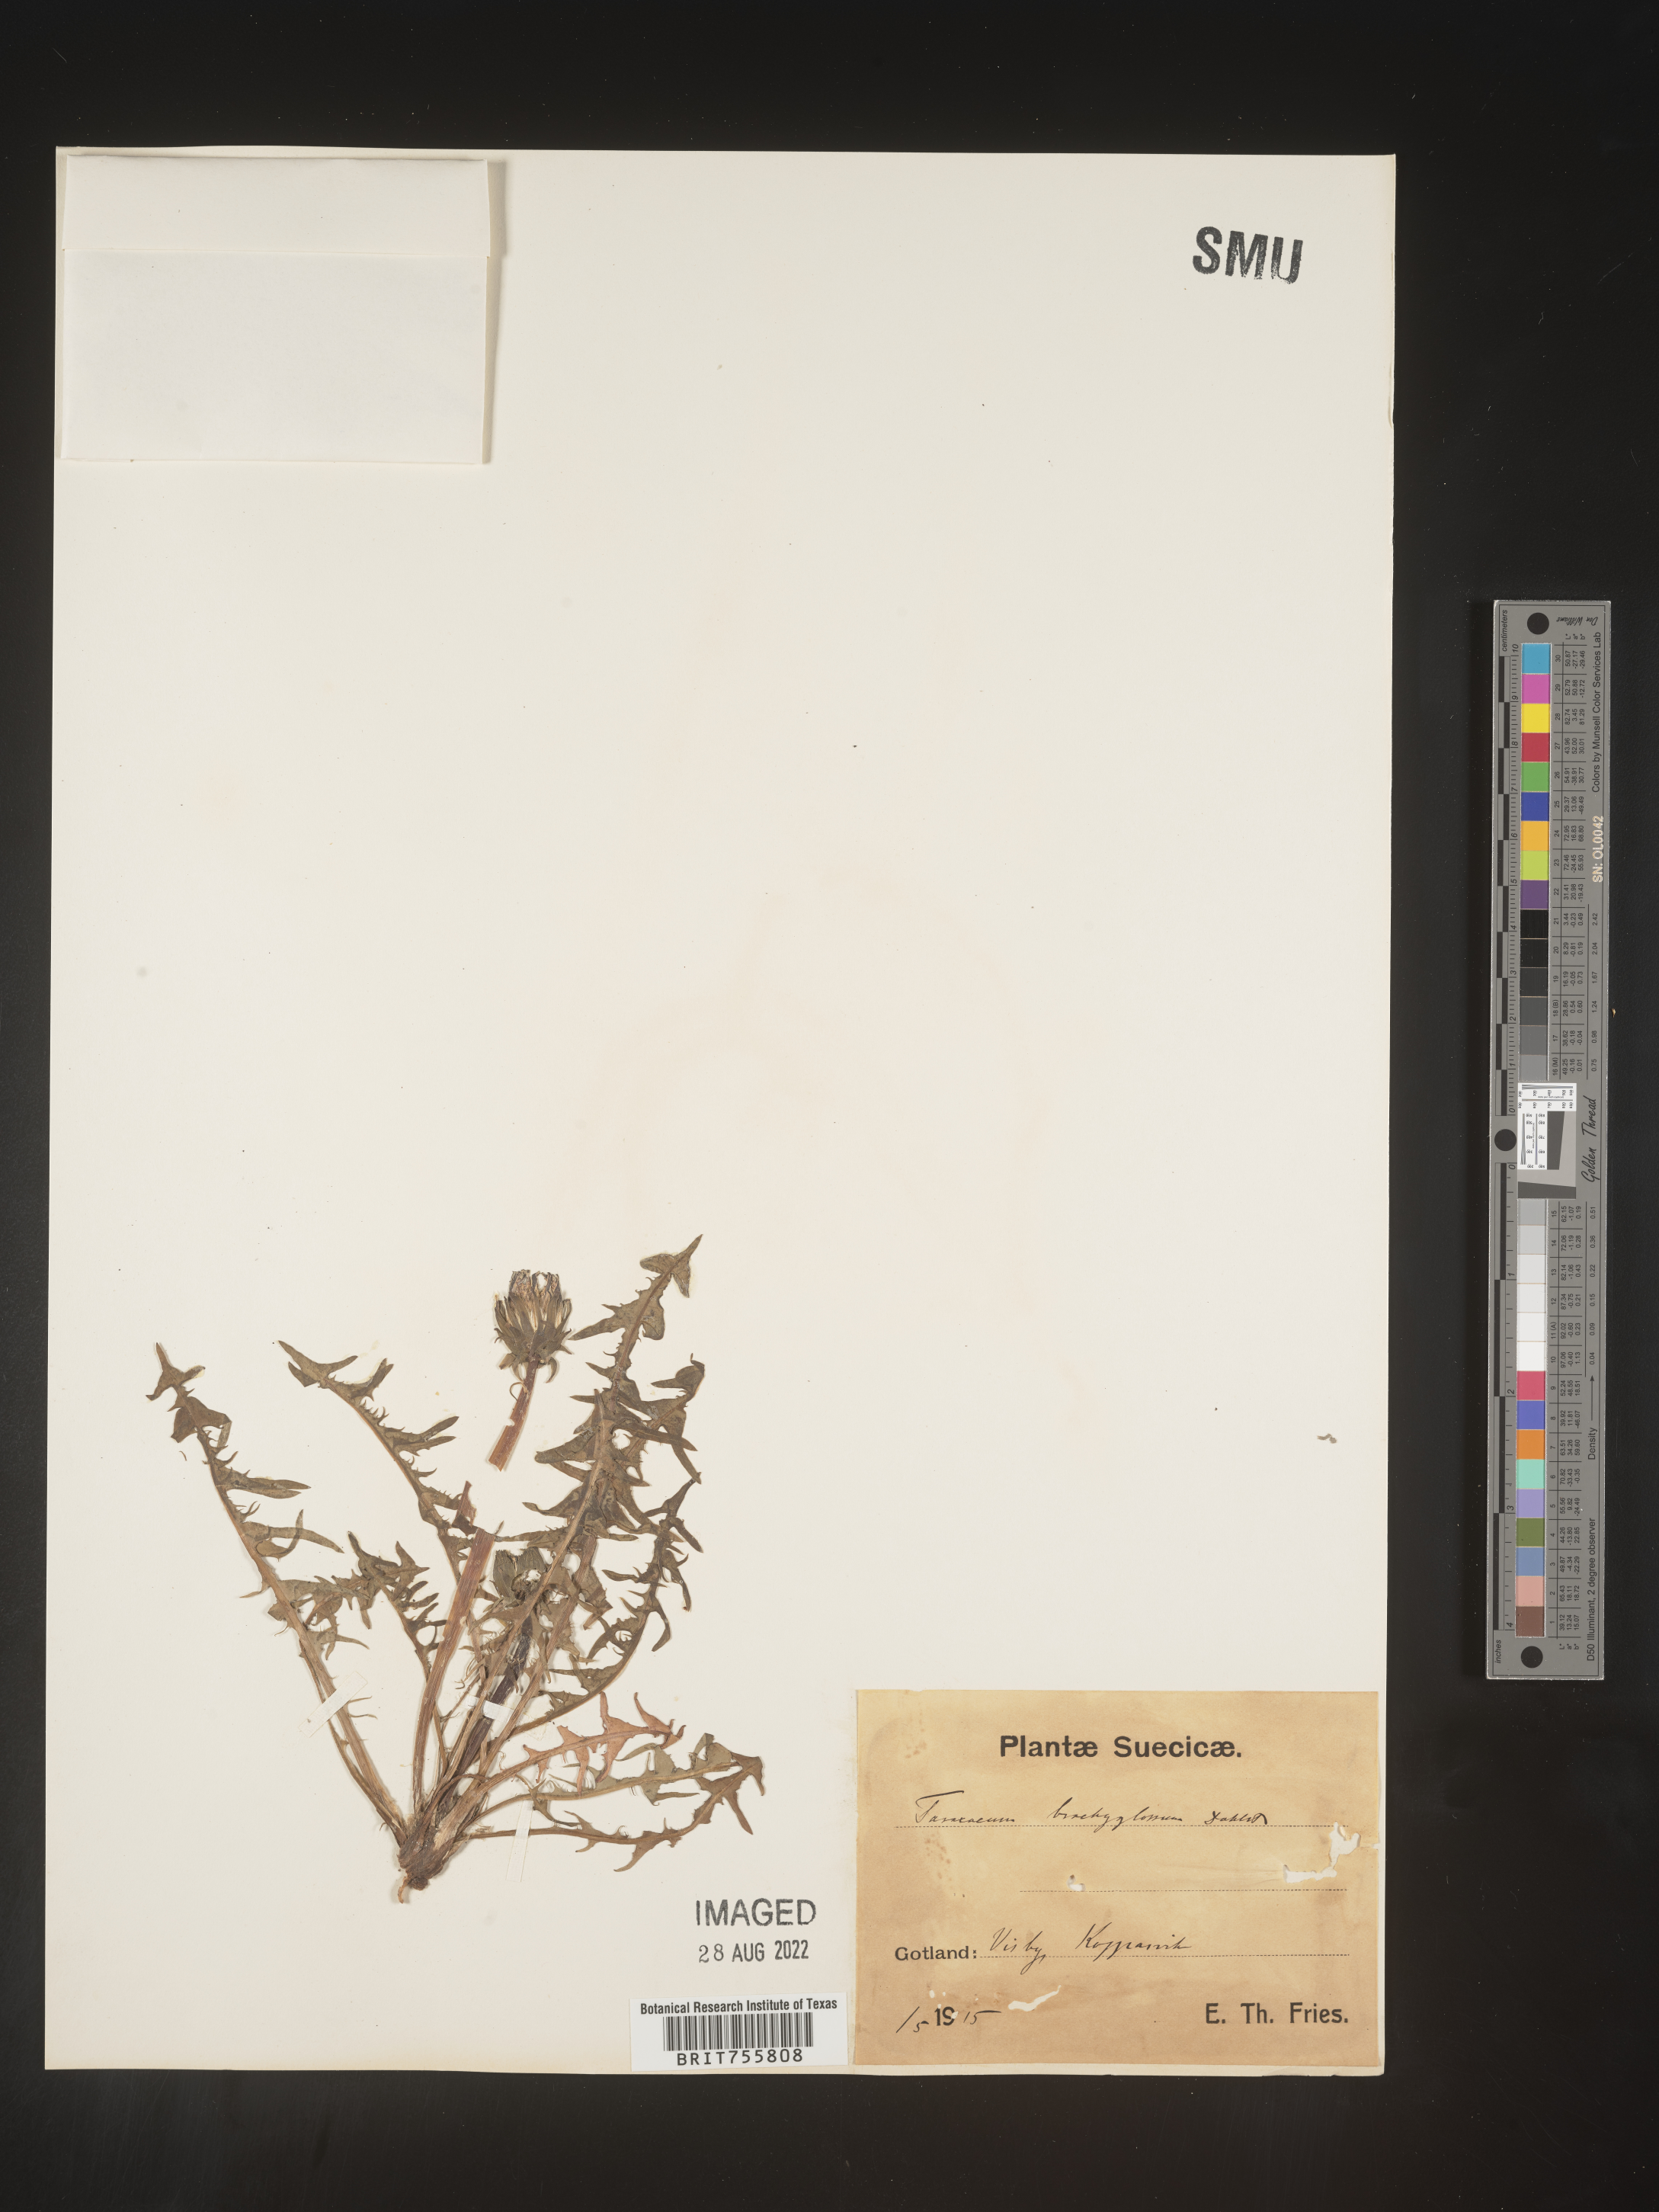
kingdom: Plantae
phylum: Tracheophyta
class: Magnoliopsida
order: Asterales
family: Asteraceae
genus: Taraxacum
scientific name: Taraxacum
